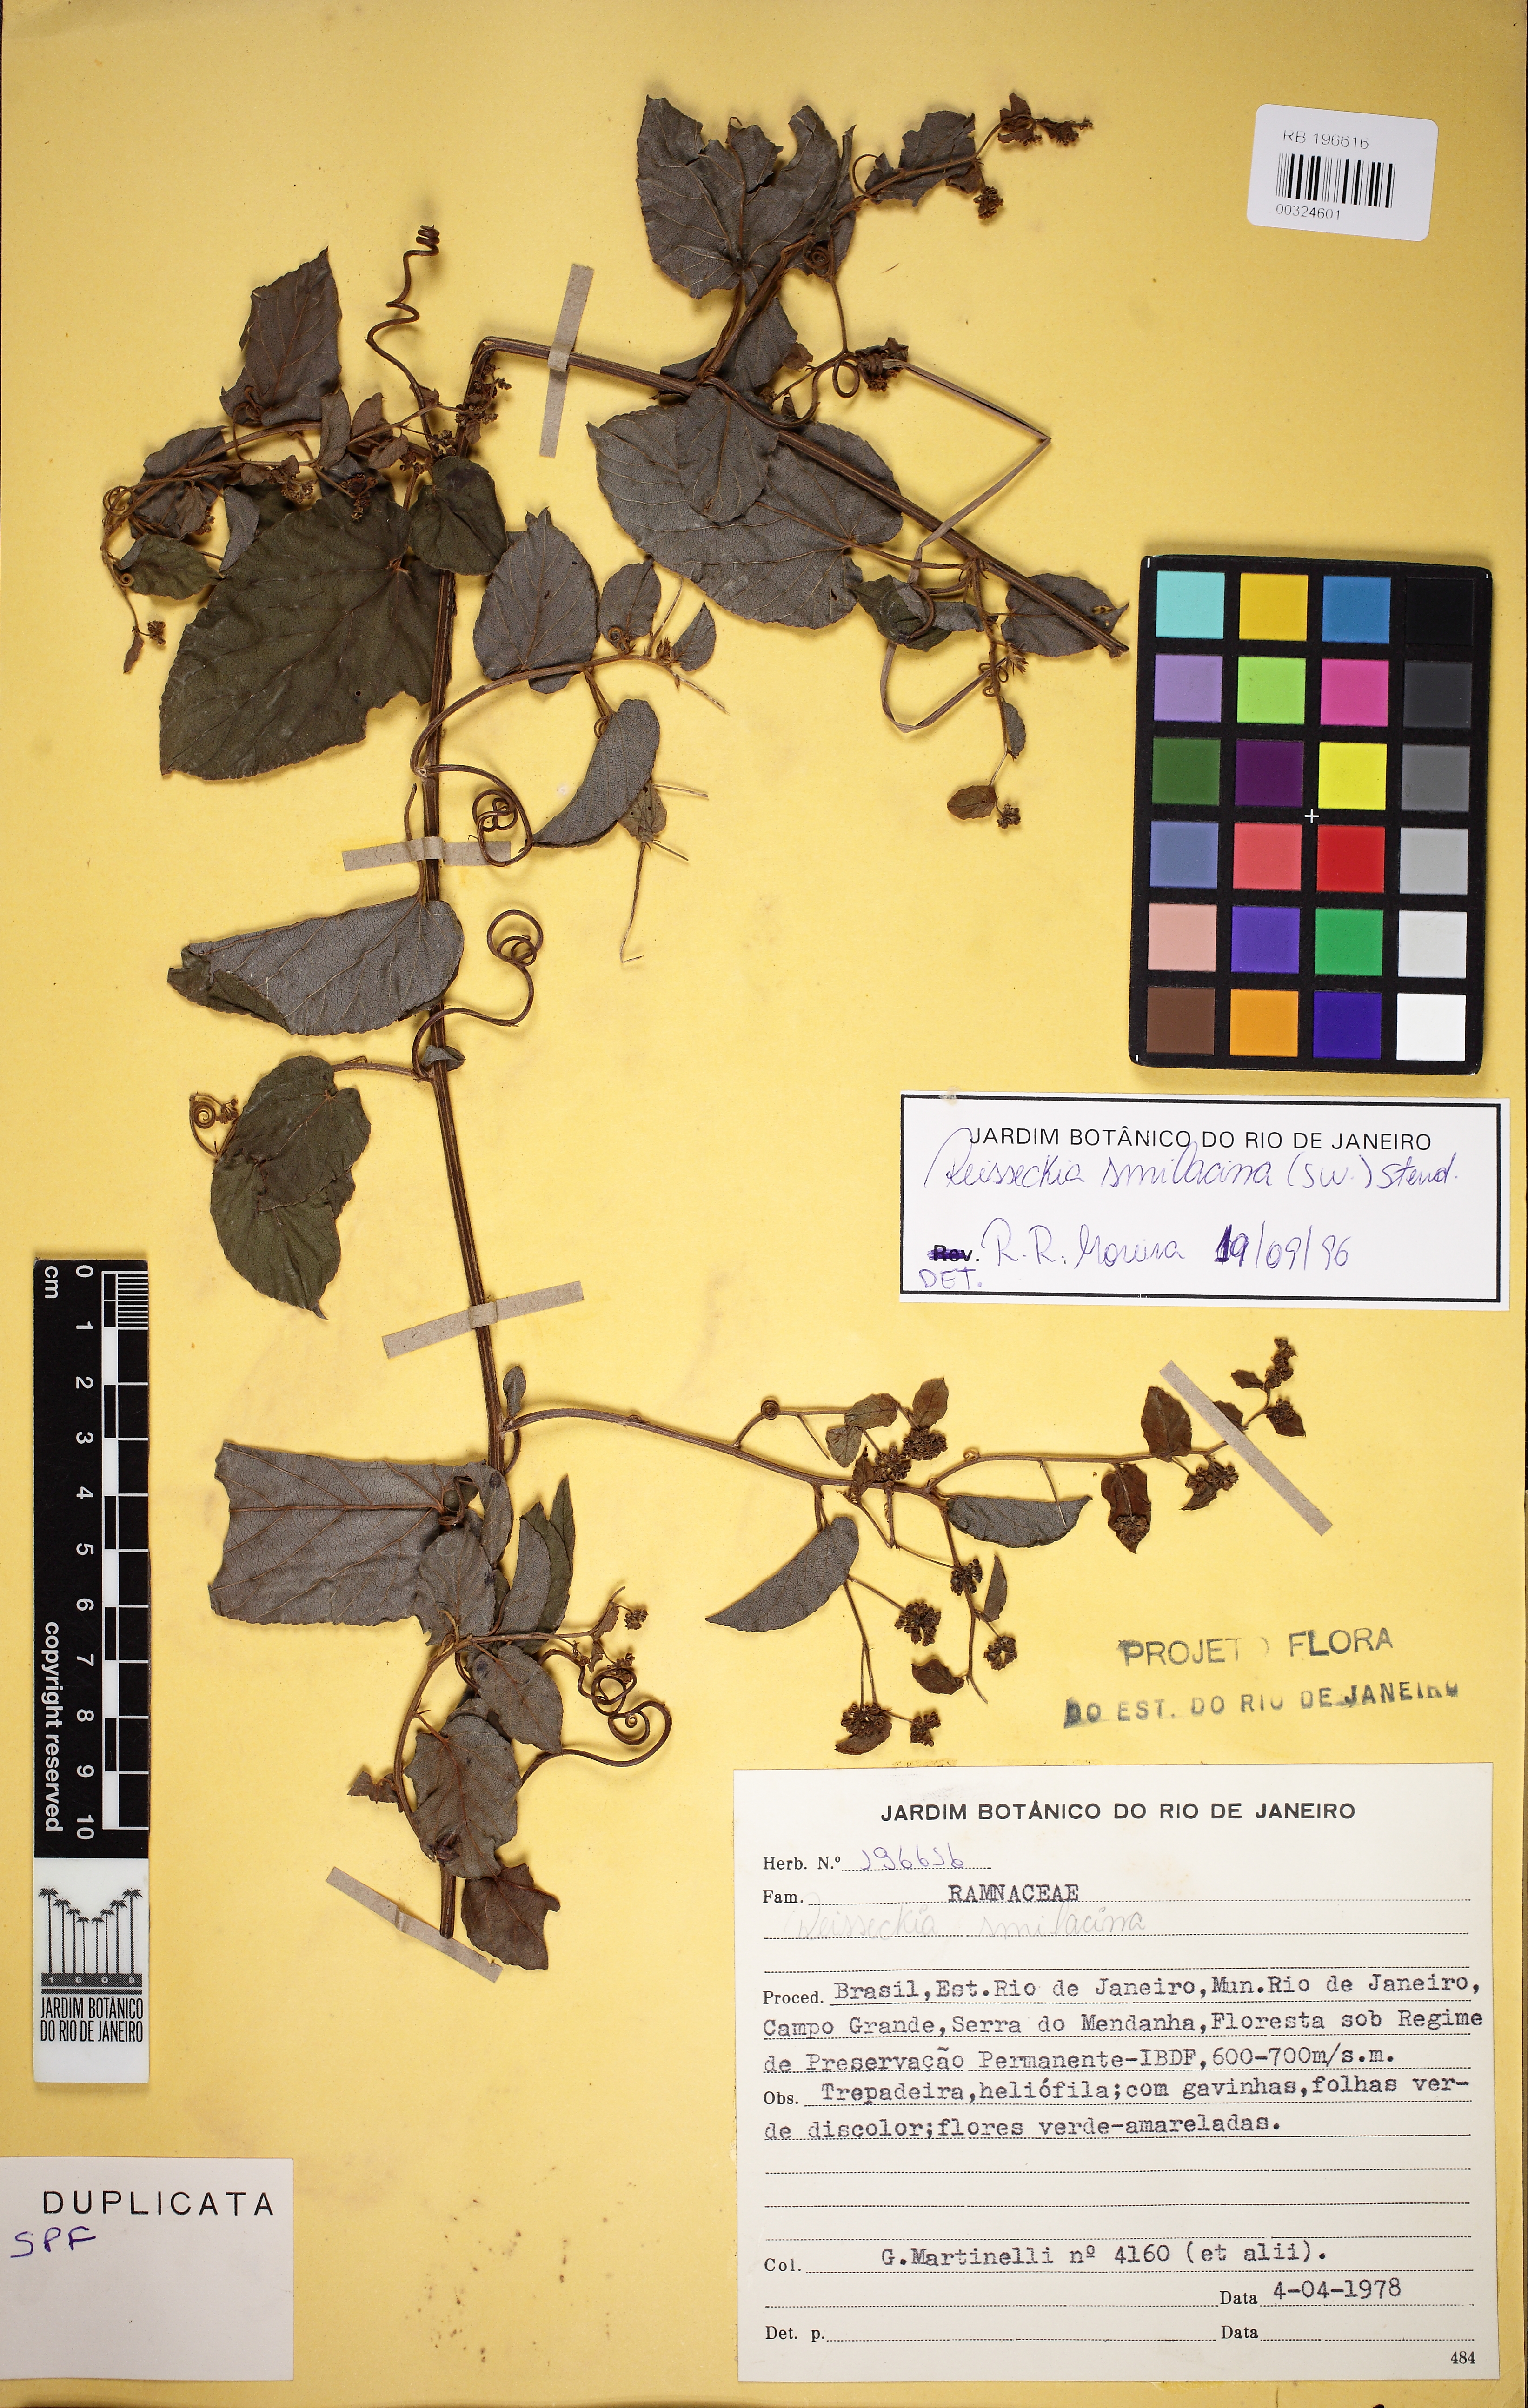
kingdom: Plantae
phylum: Tracheophyta
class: Magnoliopsida
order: Rosales
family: Rhamnaceae
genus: Reissekia
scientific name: Reissekia smilacina
